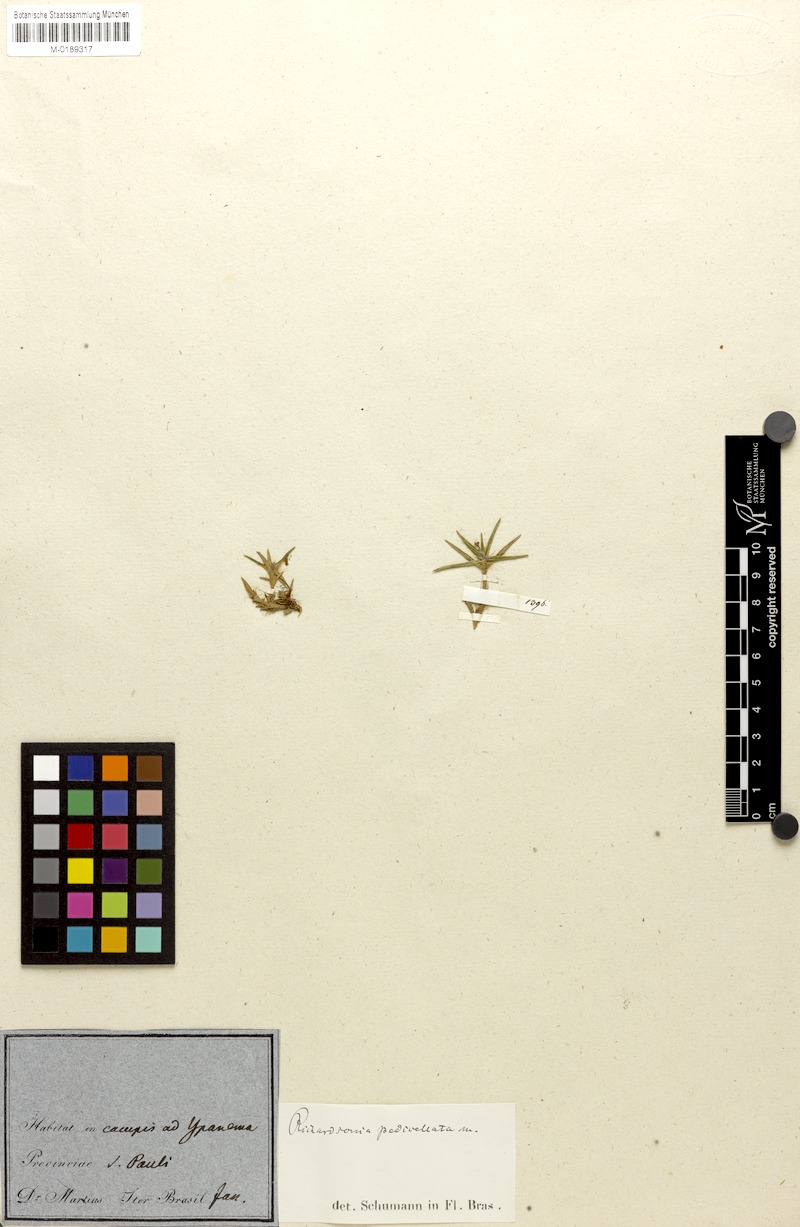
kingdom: Plantae
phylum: Tracheophyta
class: Magnoliopsida
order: Gentianales
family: Rubiaceae
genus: Richardia
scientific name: Richardia pedicellata
